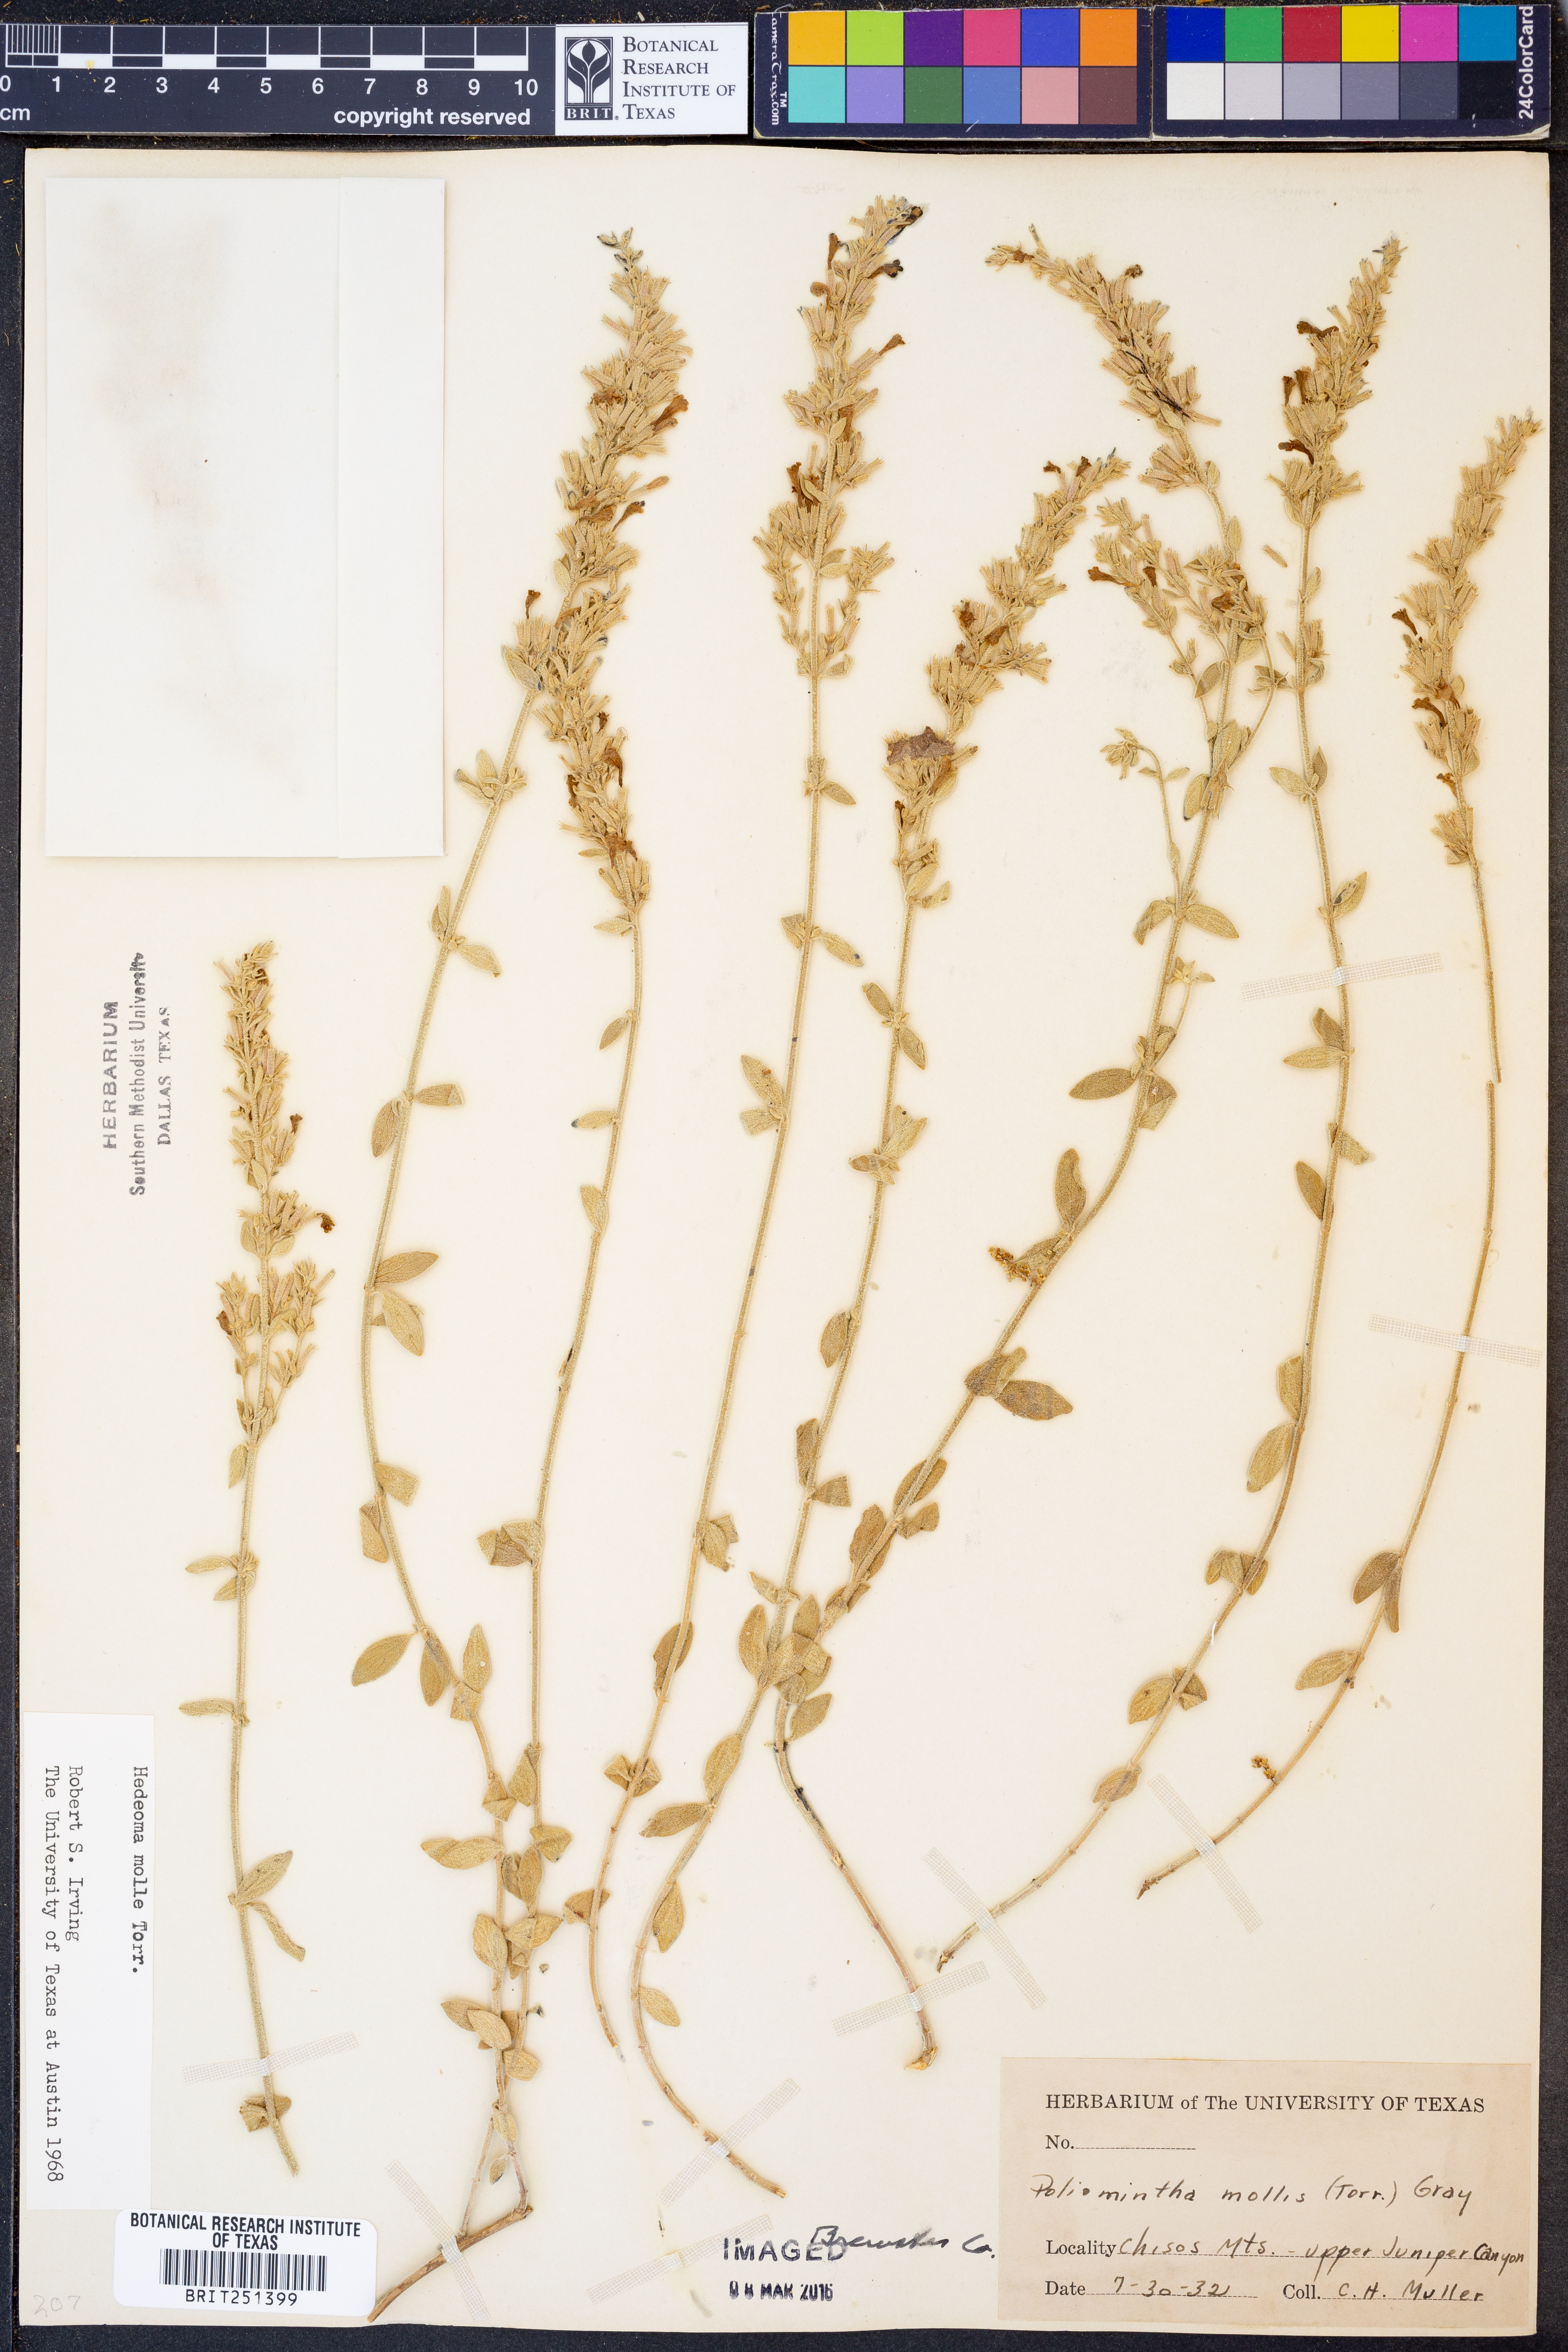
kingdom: Plantae
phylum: Tracheophyta
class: Magnoliopsida
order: Lamiales
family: Lamiaceae
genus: Hedeoma
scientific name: Hedeoma mollis
